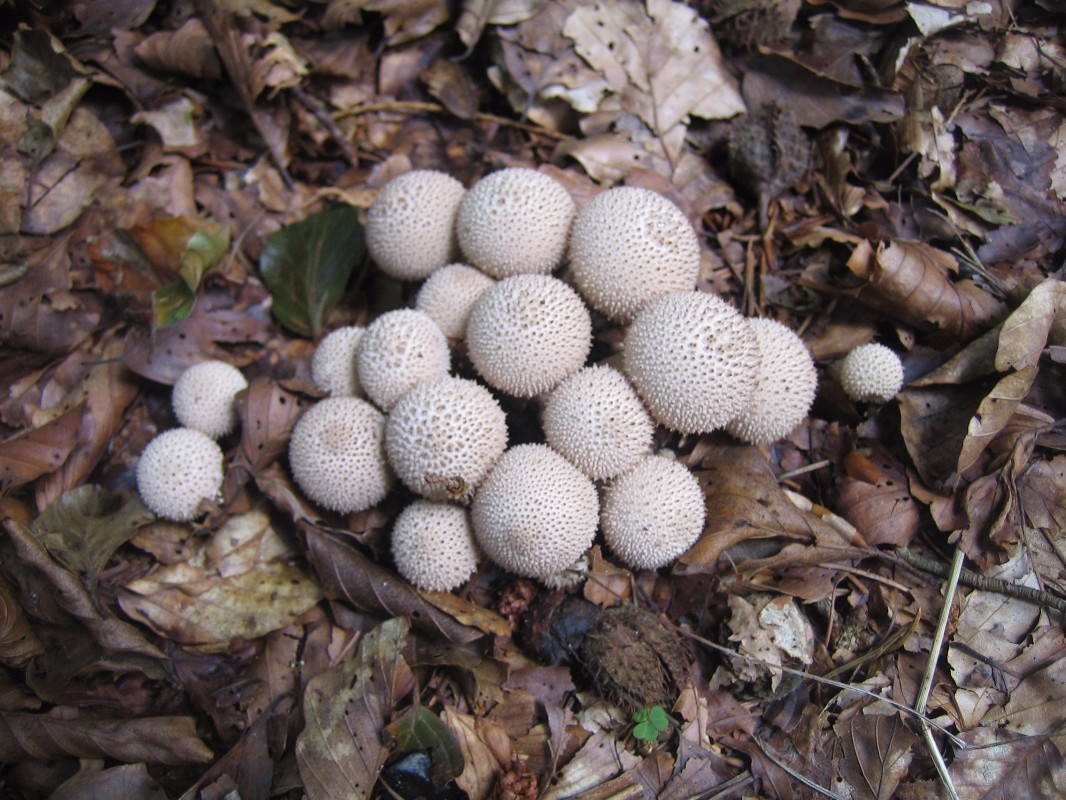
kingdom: Fungi
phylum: Basidiomycota
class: Agaricomycetes
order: Agaricales
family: Lycoperdaceae
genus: Lycoperdon
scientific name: Lycoperdon perlatum
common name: krystal-støvbold
